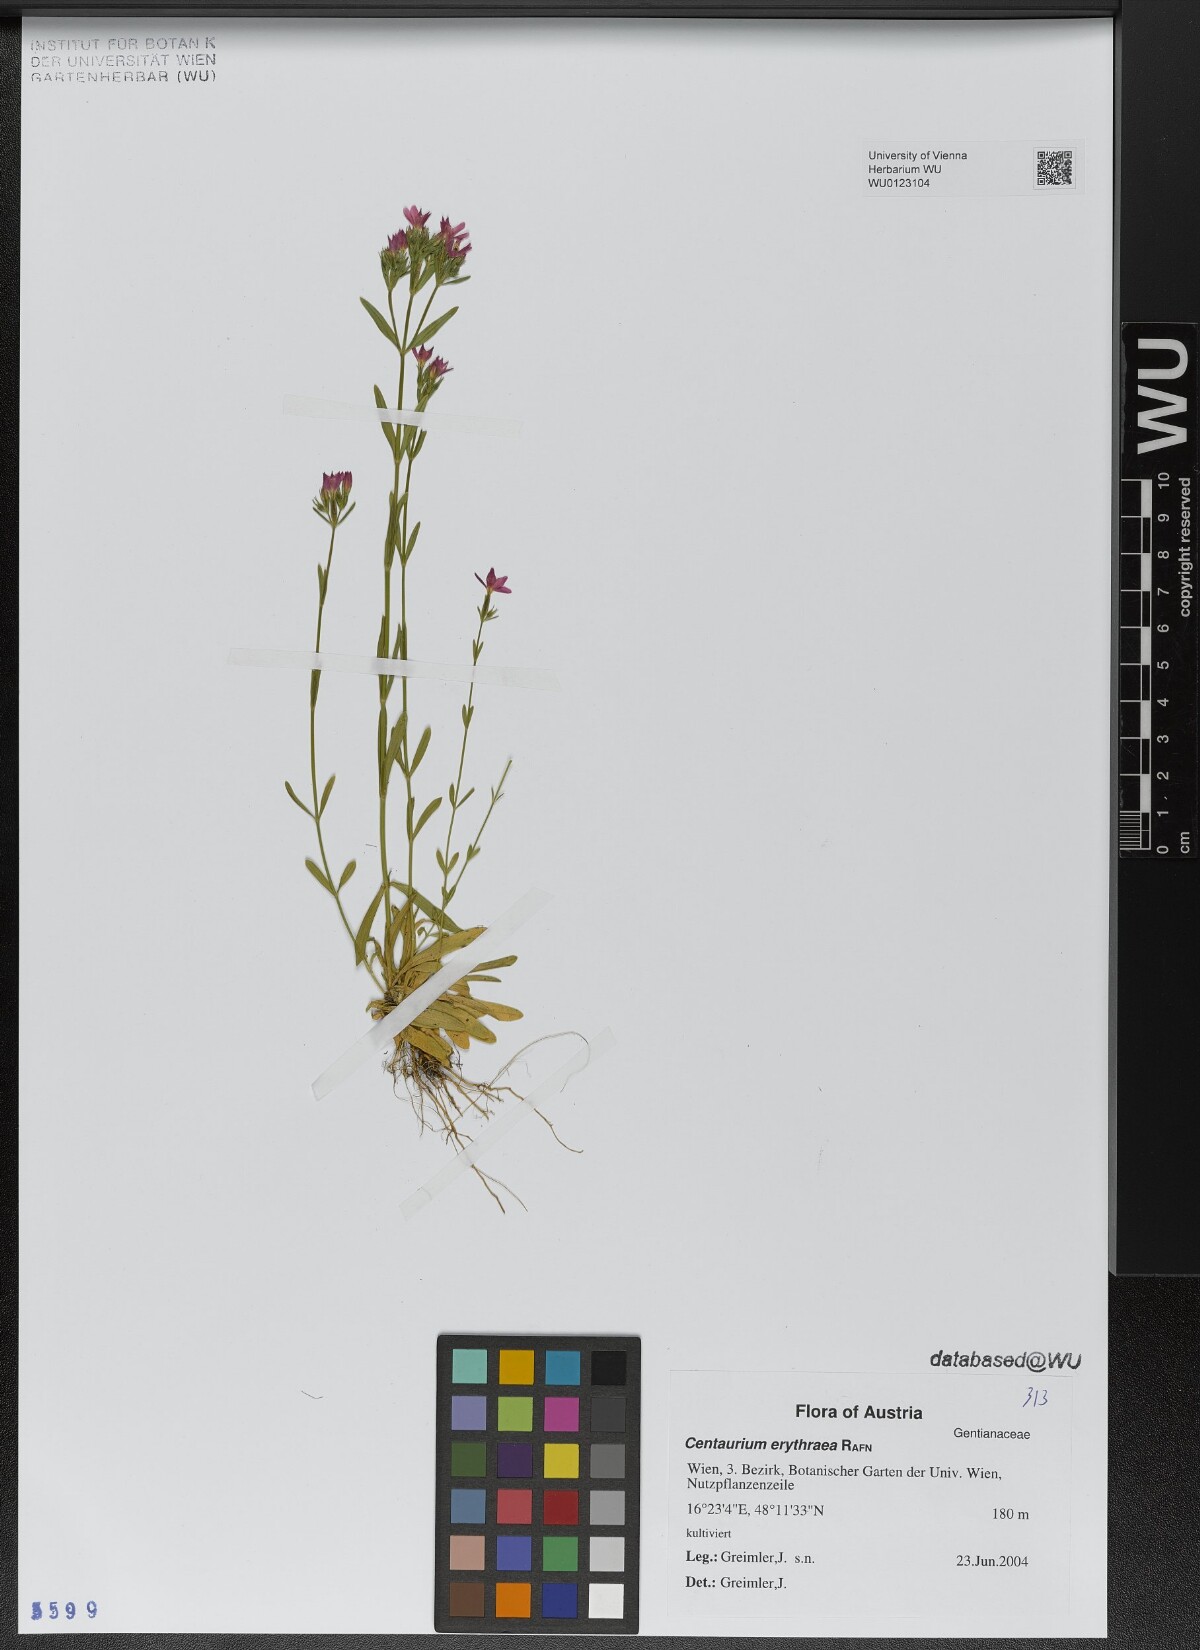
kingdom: Plantae
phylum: Tracheophyta
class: Magnoliopsida
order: Gentianales
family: Gentianaceae
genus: Centaurium
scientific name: Centaurium erythraea
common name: Common centaury
